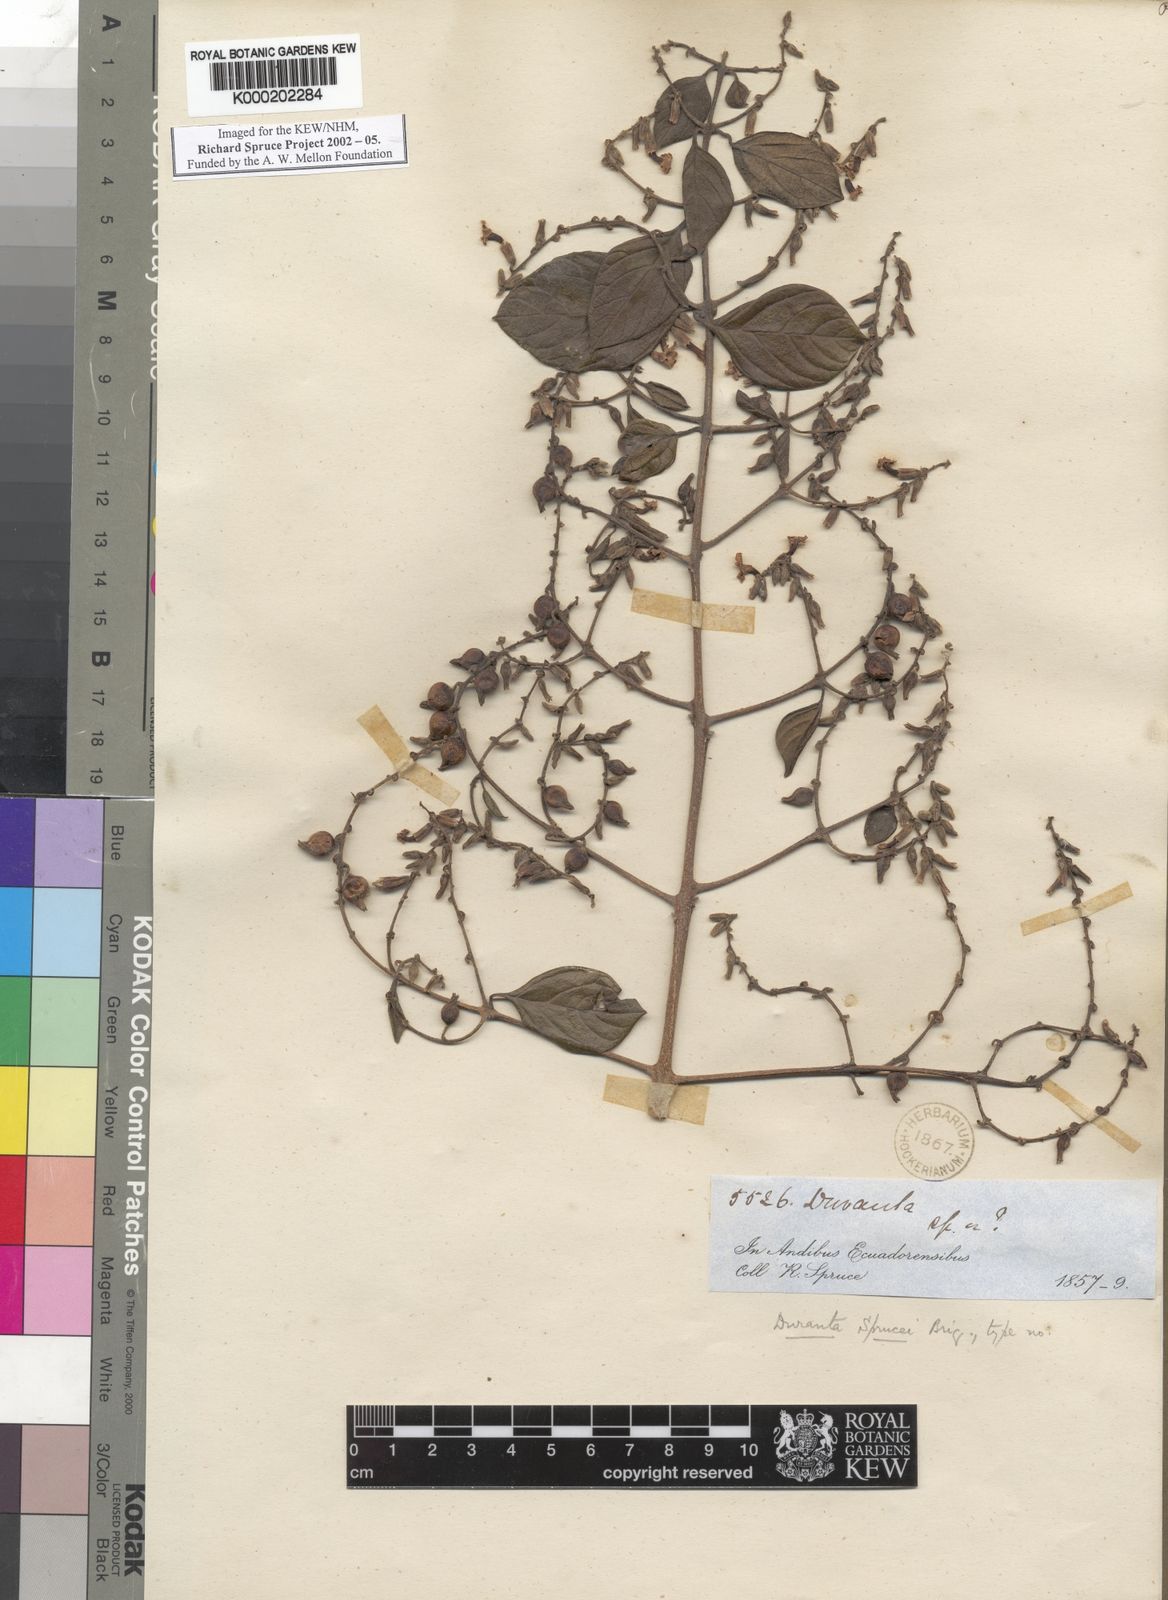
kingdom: Plantae
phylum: Tracheophyta
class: Magnoliopsida
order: Lamiales
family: Verbenaceae
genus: Duranta
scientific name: Duranta sprucei
